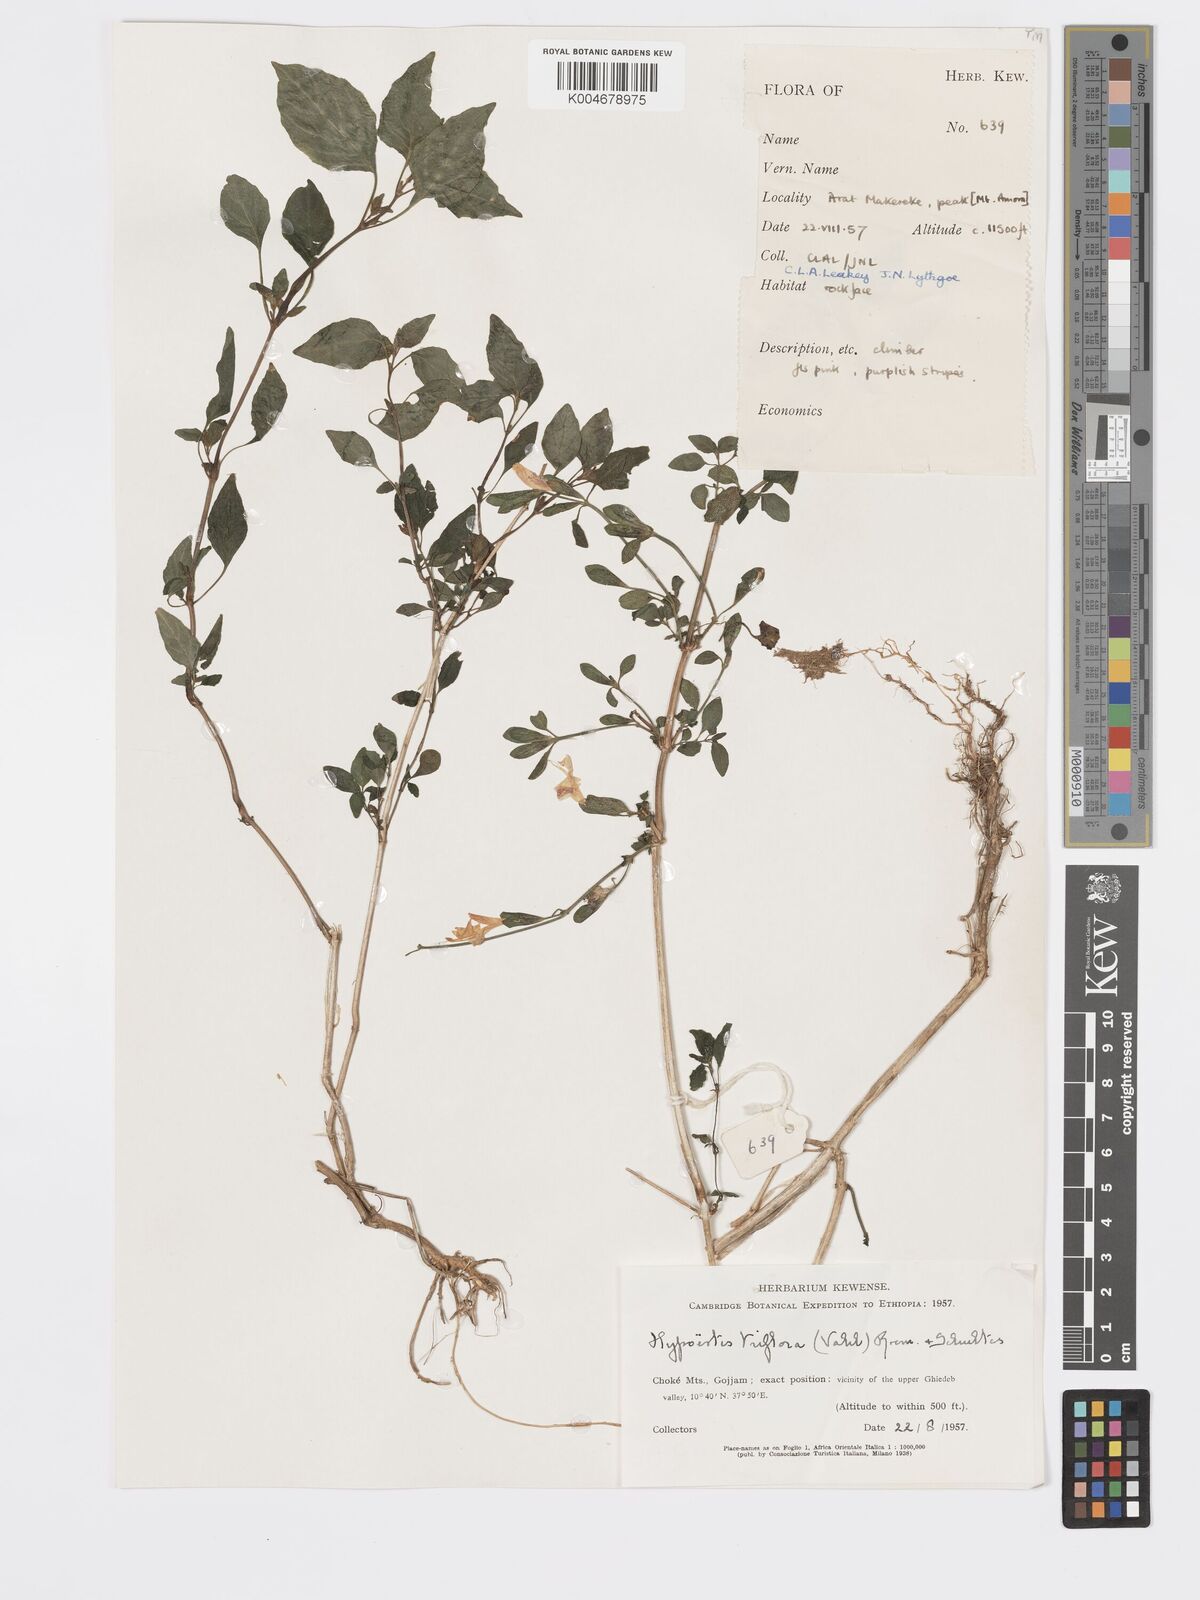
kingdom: Plantae
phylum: Tracheophyta
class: Magnoliopsida
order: Lamiales
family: Acanthaceae
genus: Hypoestes
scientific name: Hypoestes triflora
